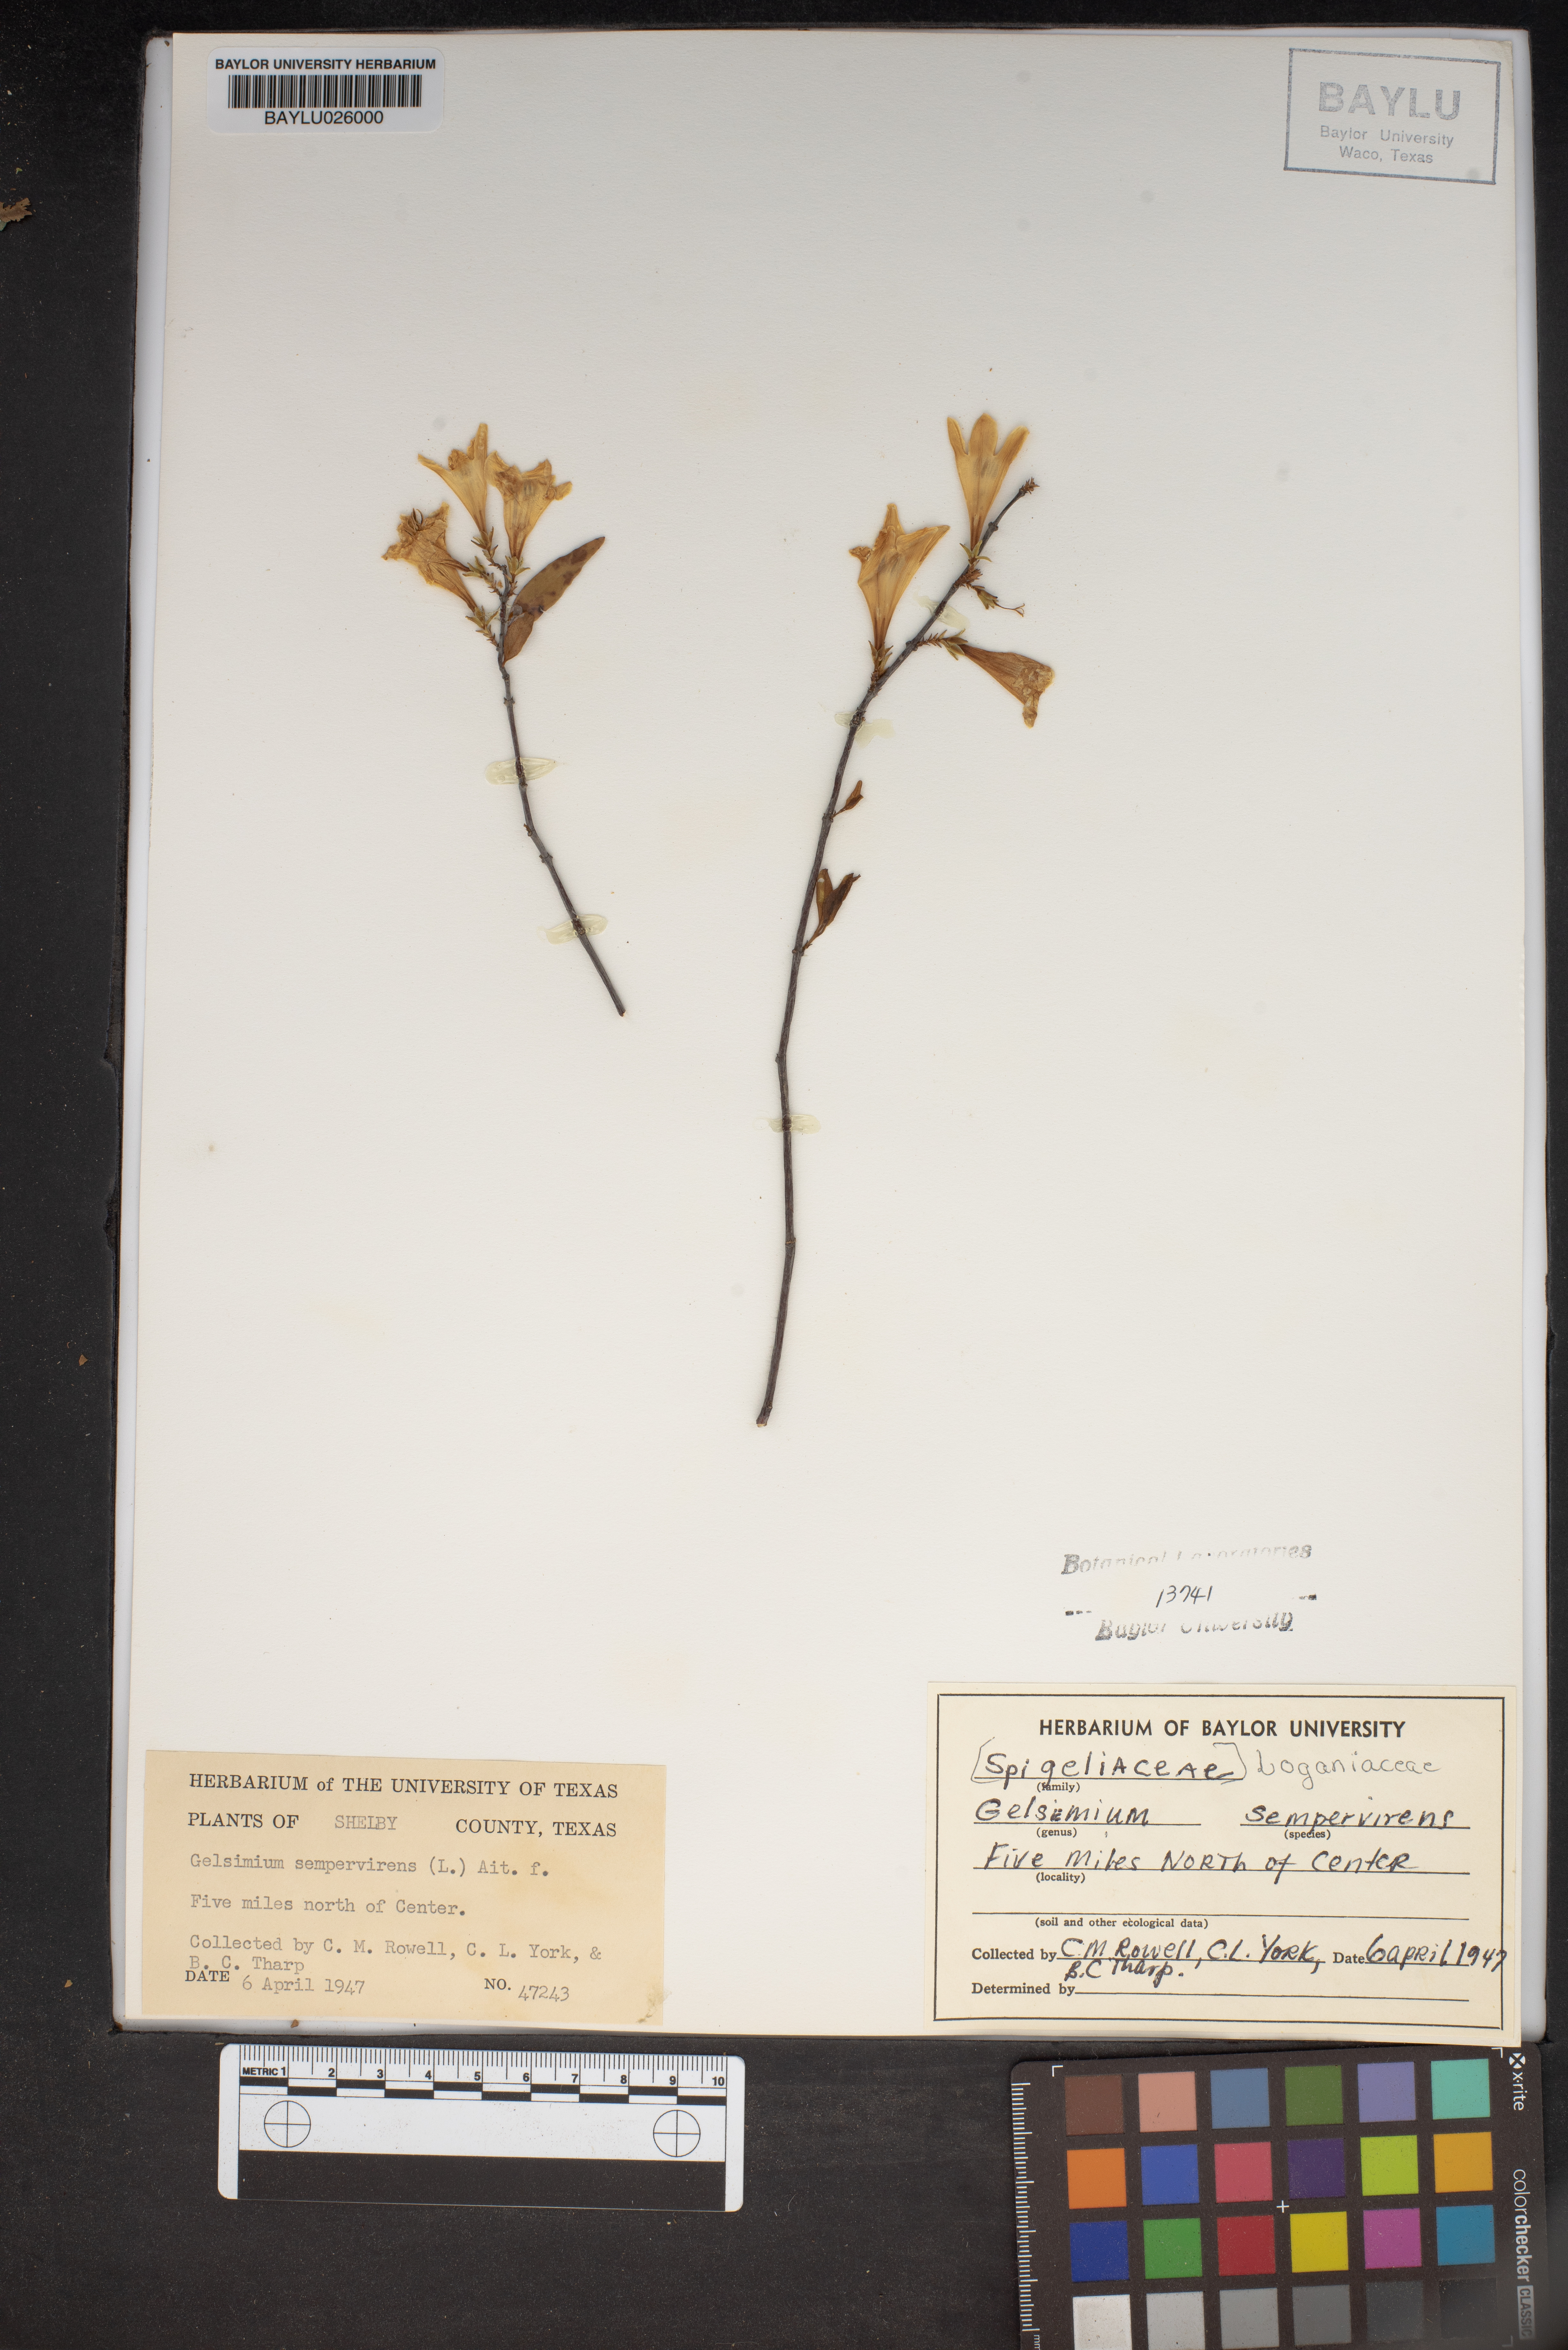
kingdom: Plantae
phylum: Tracheophyta
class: Magnoliopsida
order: Gentianales
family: Gelsemiaceae
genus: Gelsemium
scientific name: Gelsemium sempervirens
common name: Carolina-jasmine
